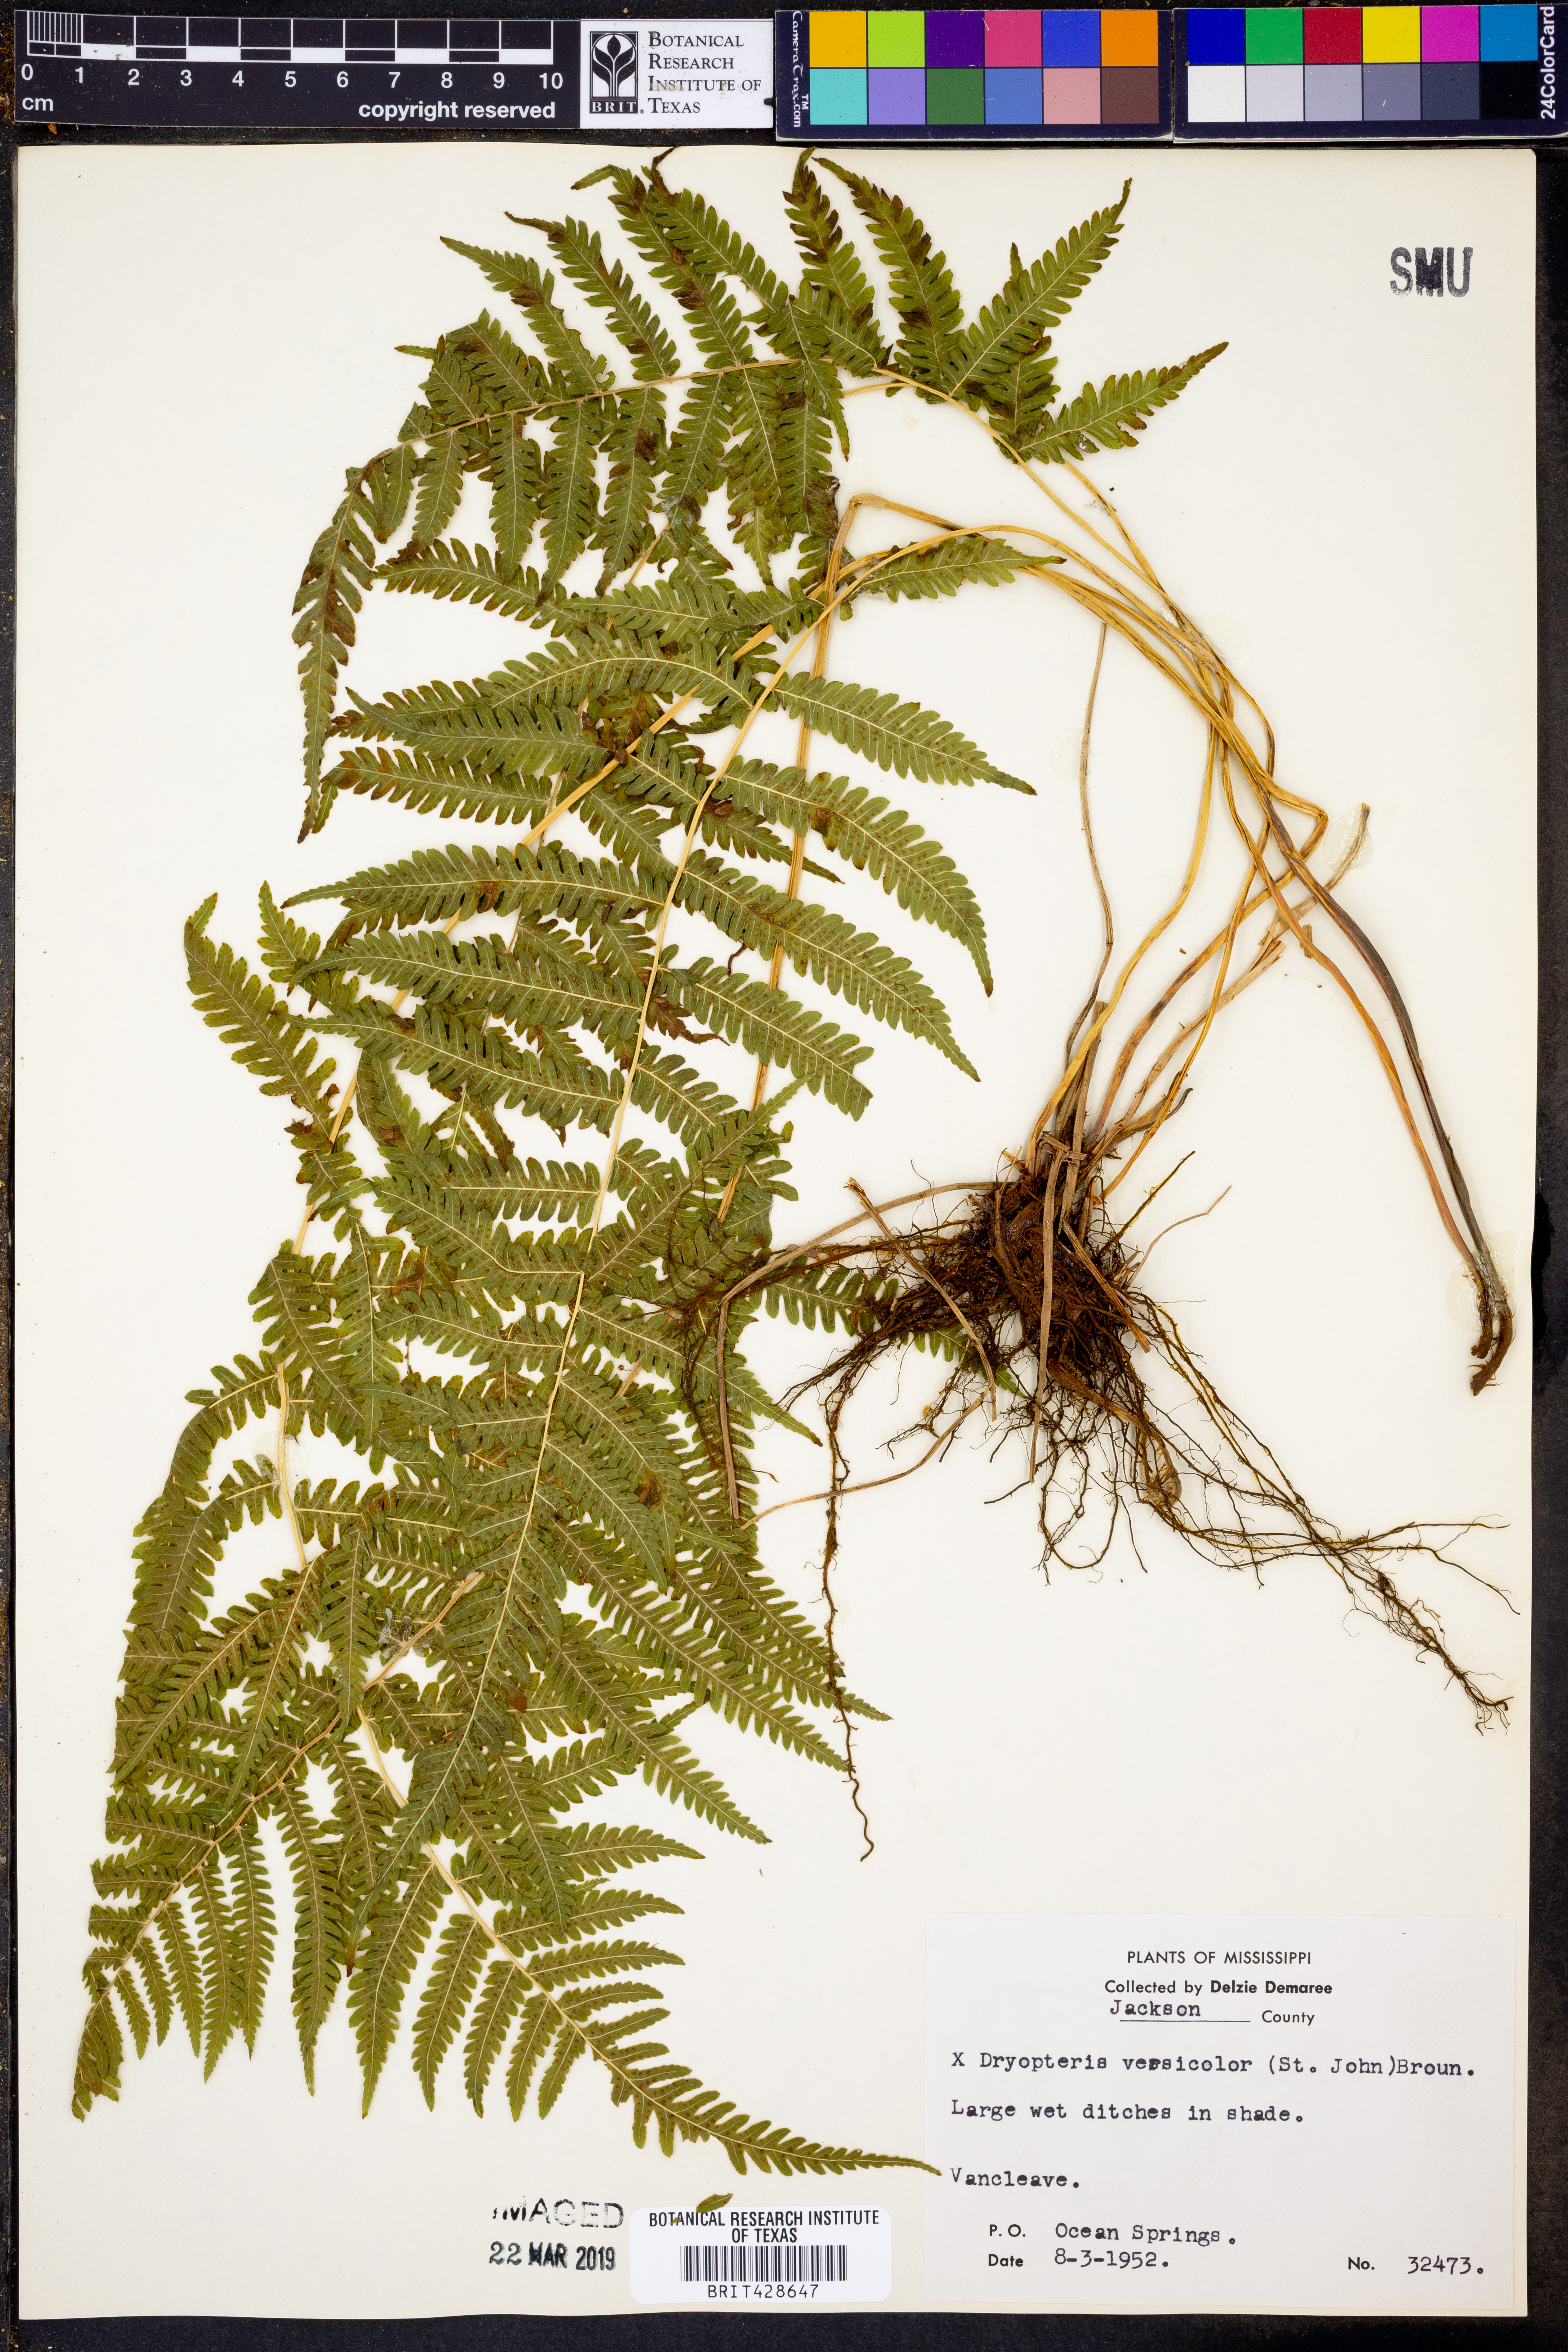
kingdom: Plantae
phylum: Tracheophyta
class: Polypodiopsida
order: Polypodiales
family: Thelypteridaceae
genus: Christella
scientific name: Christella hispidula
